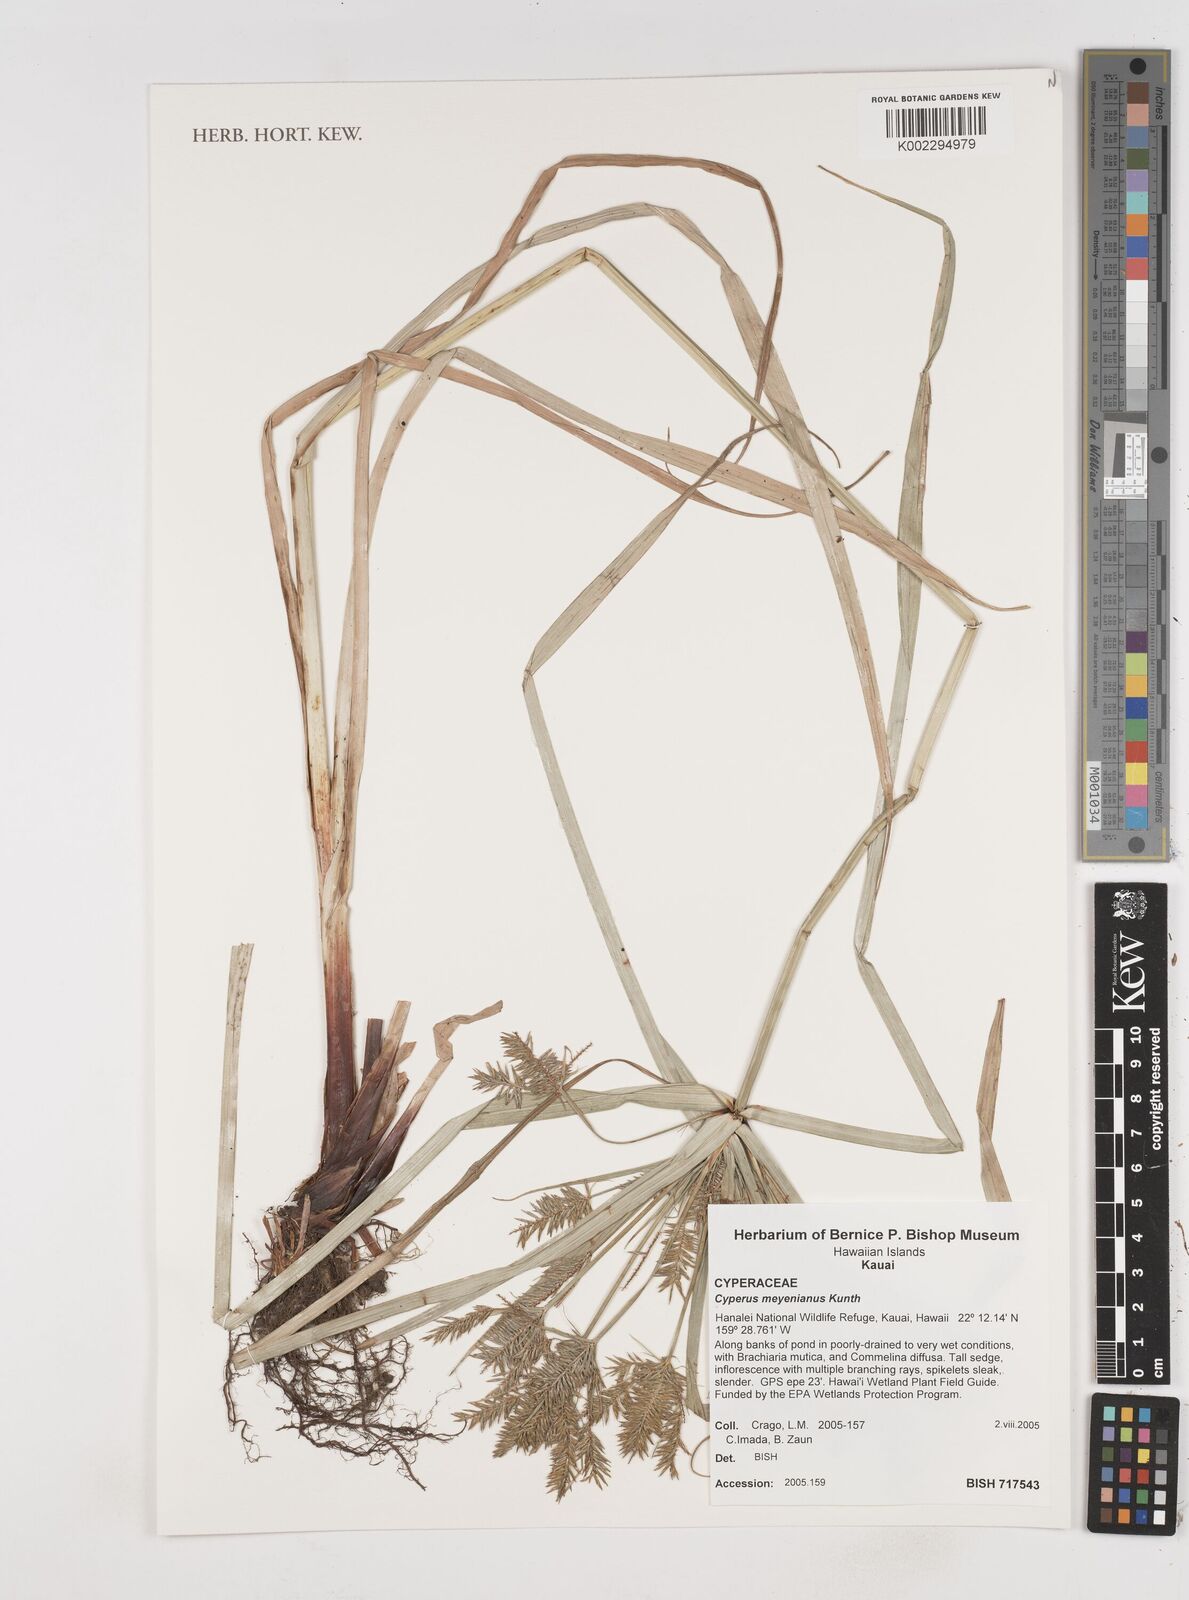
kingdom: Plantae
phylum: Tracheophyta
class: Liliopsida
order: Poales
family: Cyperaceae
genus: Cyperus
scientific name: Cyperus meyenianus
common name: Meyen's flatsedge
